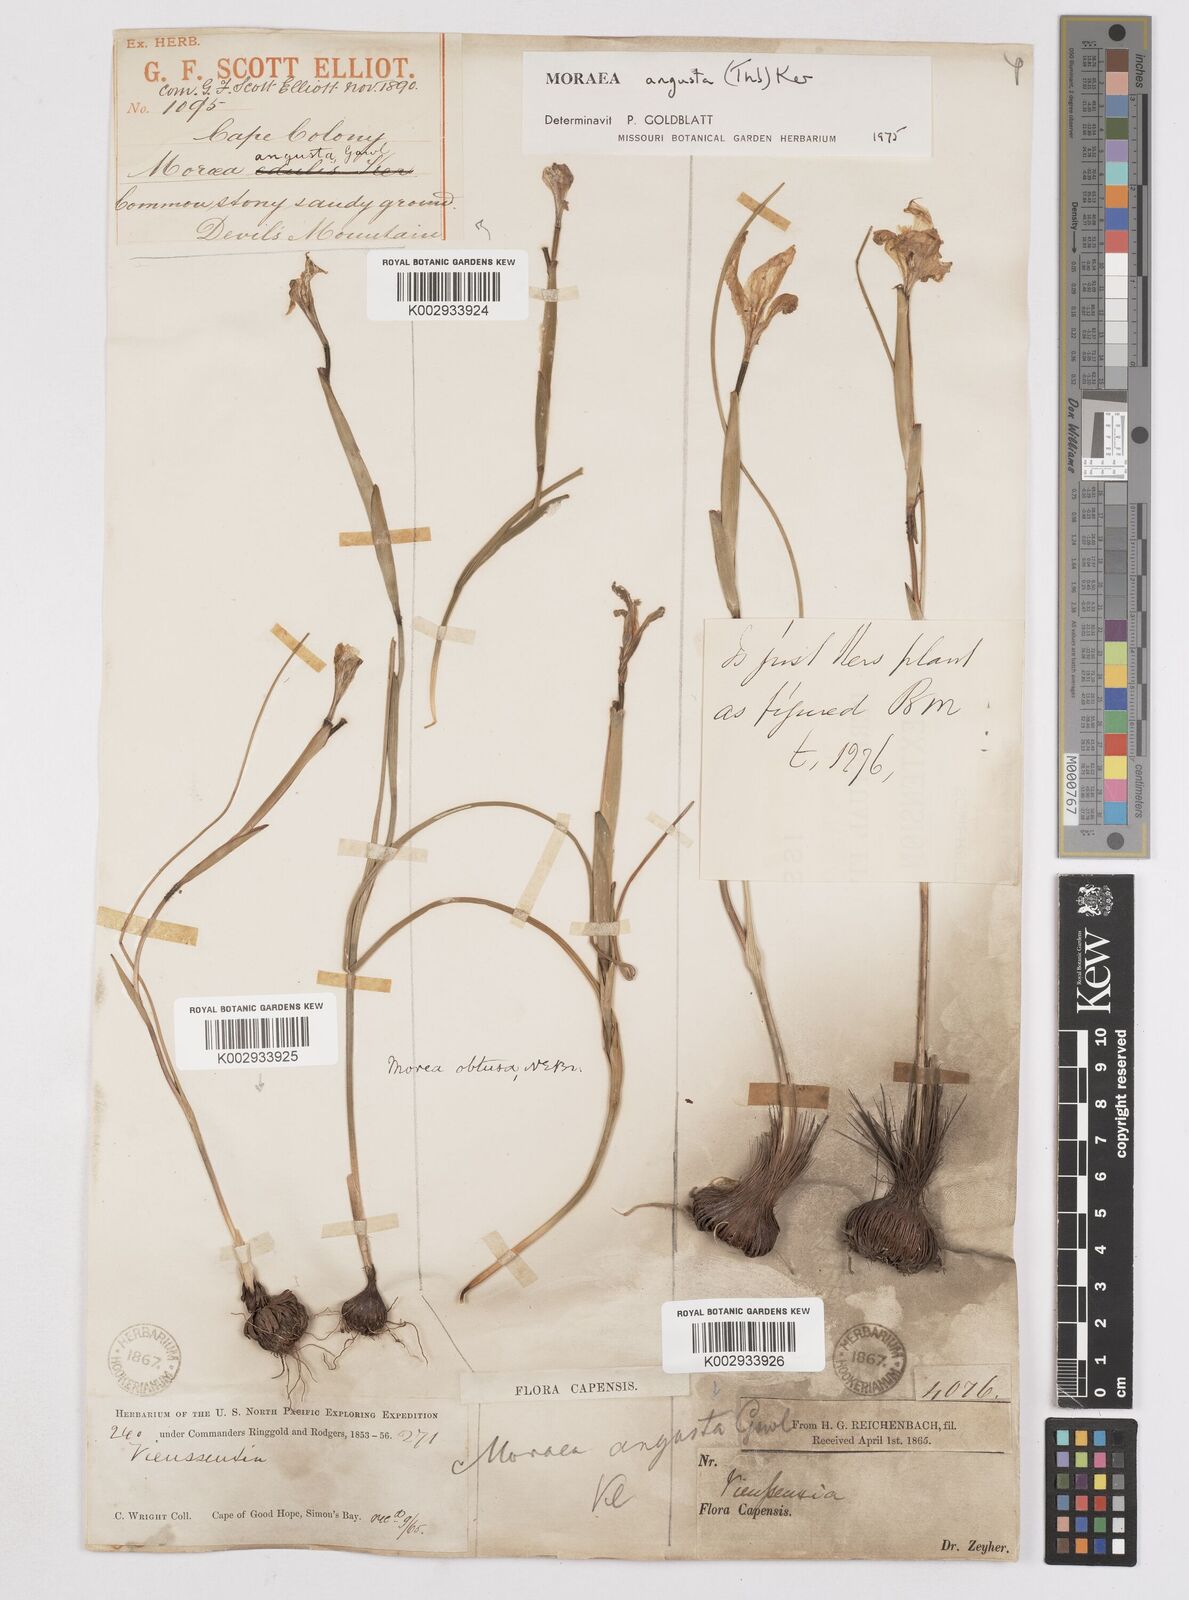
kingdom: Plantae
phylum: Tracheophyta
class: Liliopsida
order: Asparagales
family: Iridaceae
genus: Moraea
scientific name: Moraea angusta
